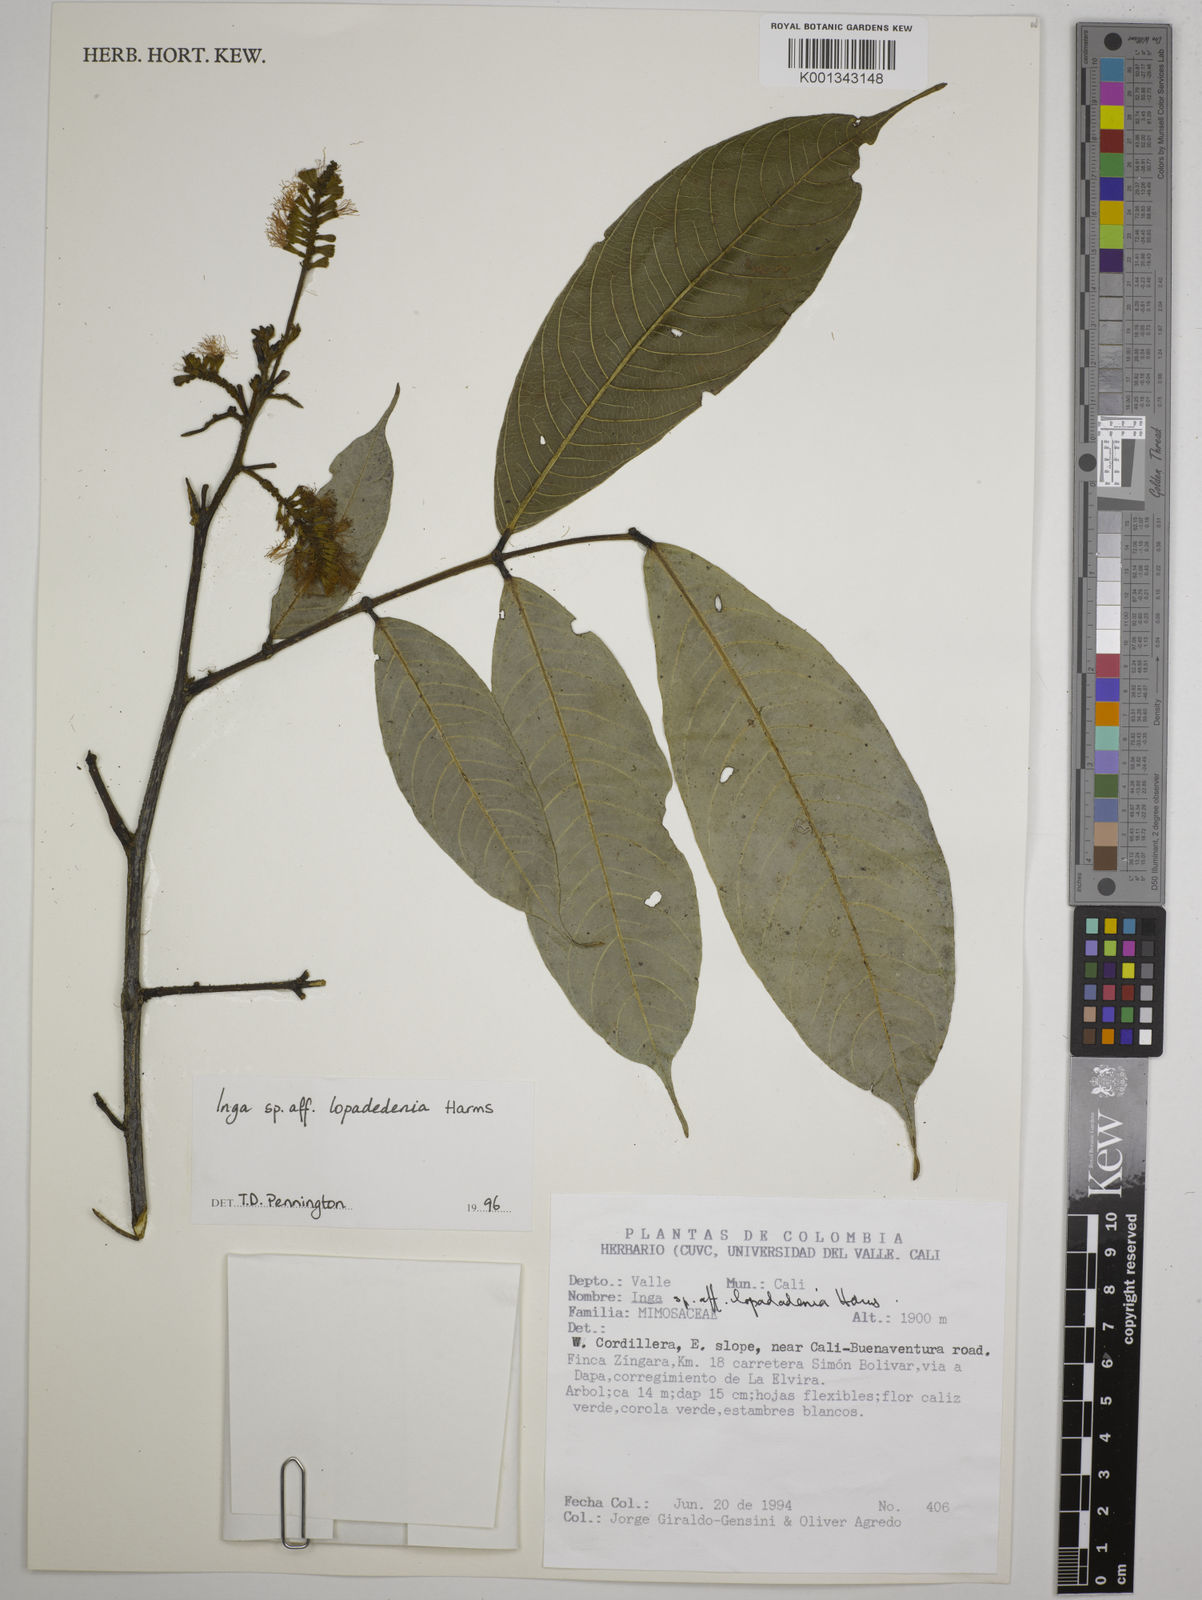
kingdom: Plantae
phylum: Tracheophyta
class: Magnoliopsida
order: Fabales
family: Fabaceae
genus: Inga
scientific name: Inga lopadadenia
